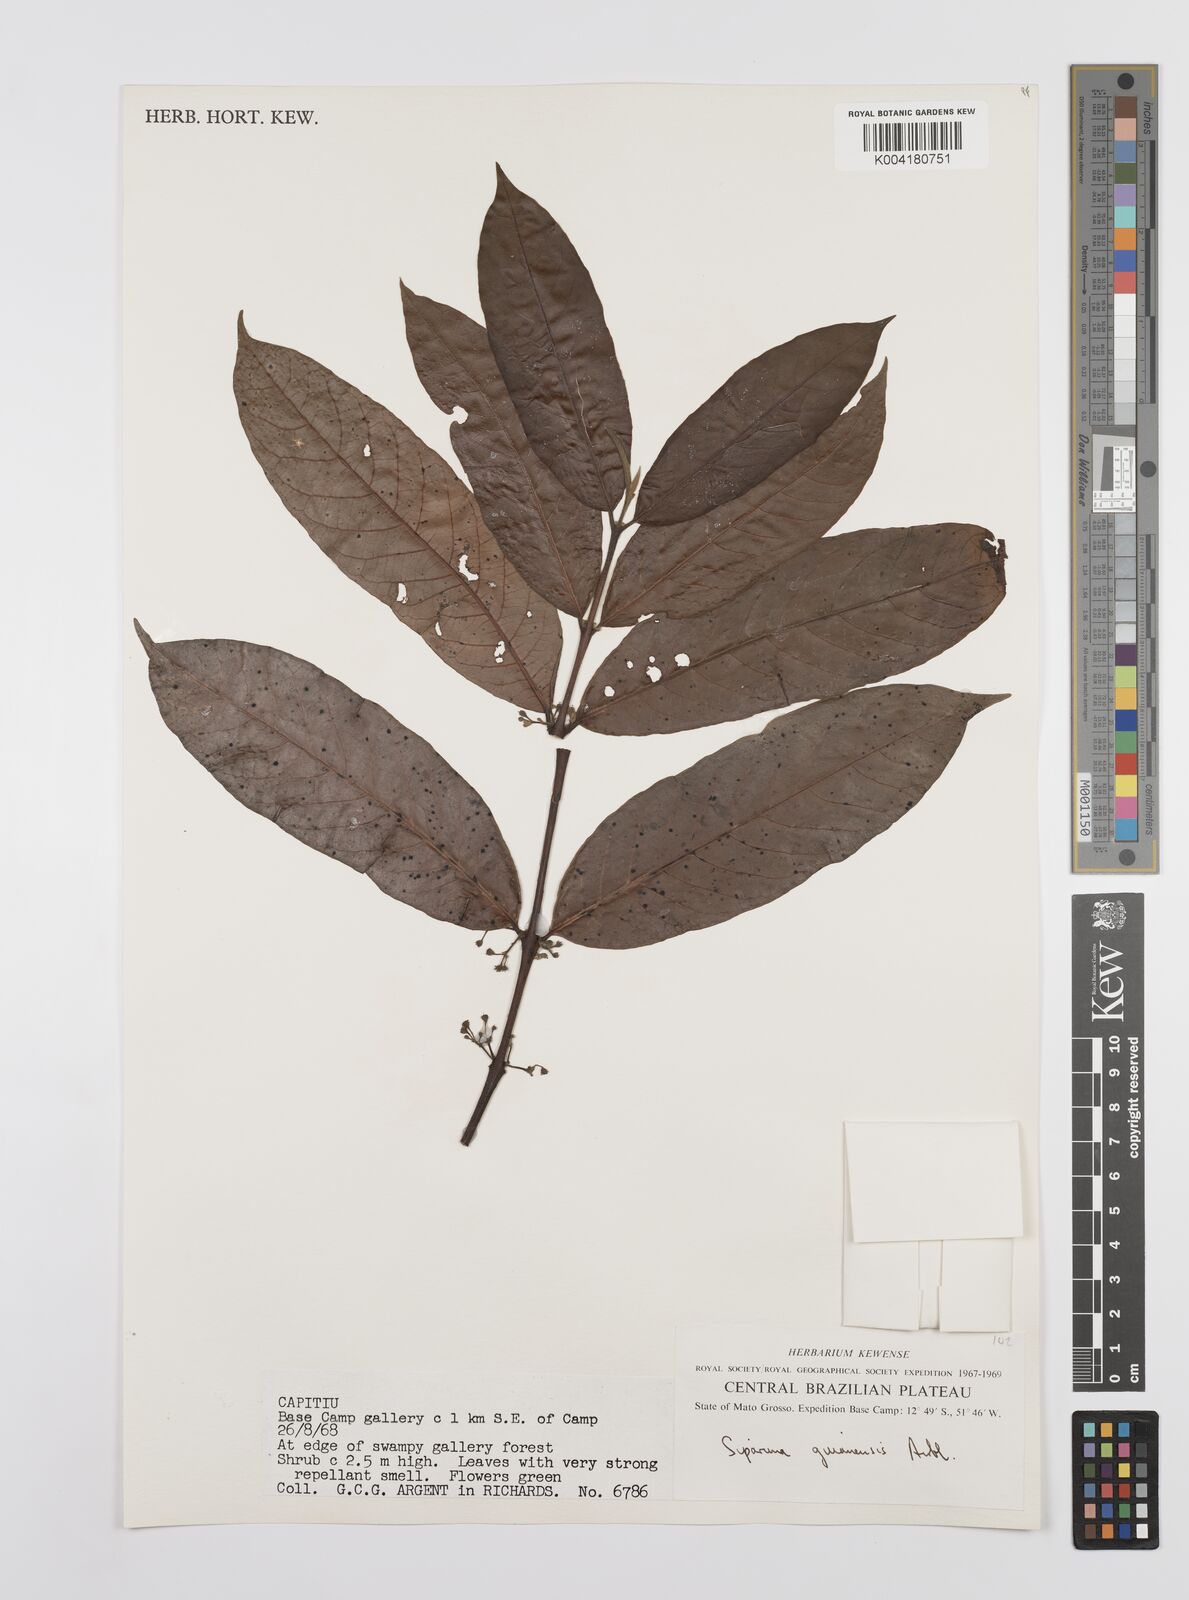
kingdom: Plantae
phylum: Tracheophyta
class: Magnoliopsida
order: Laurales
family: Siparunaceae
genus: Siparuna
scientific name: Siparuna guianensis
